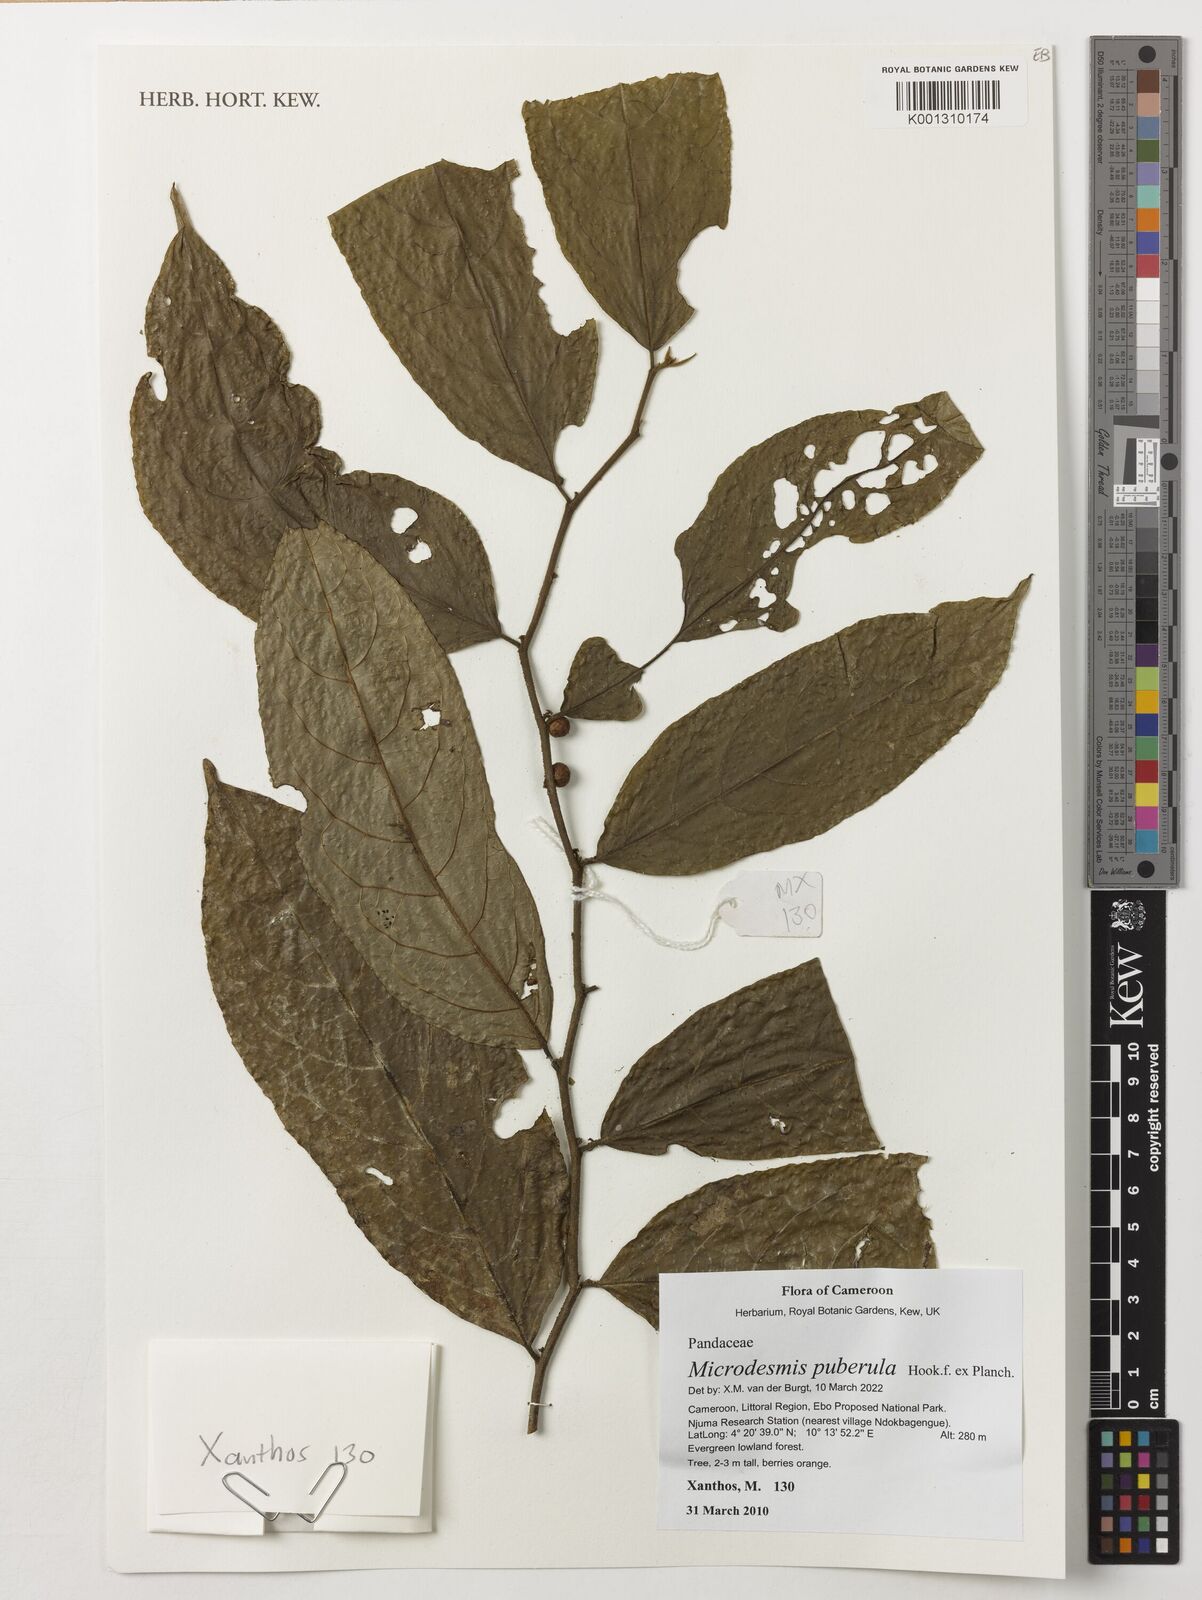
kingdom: Plantae
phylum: Tracheophyta
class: Magnoliopsida
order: Malpighiales
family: Pandaceae
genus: Microdesmis
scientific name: Microdesmis puberula
